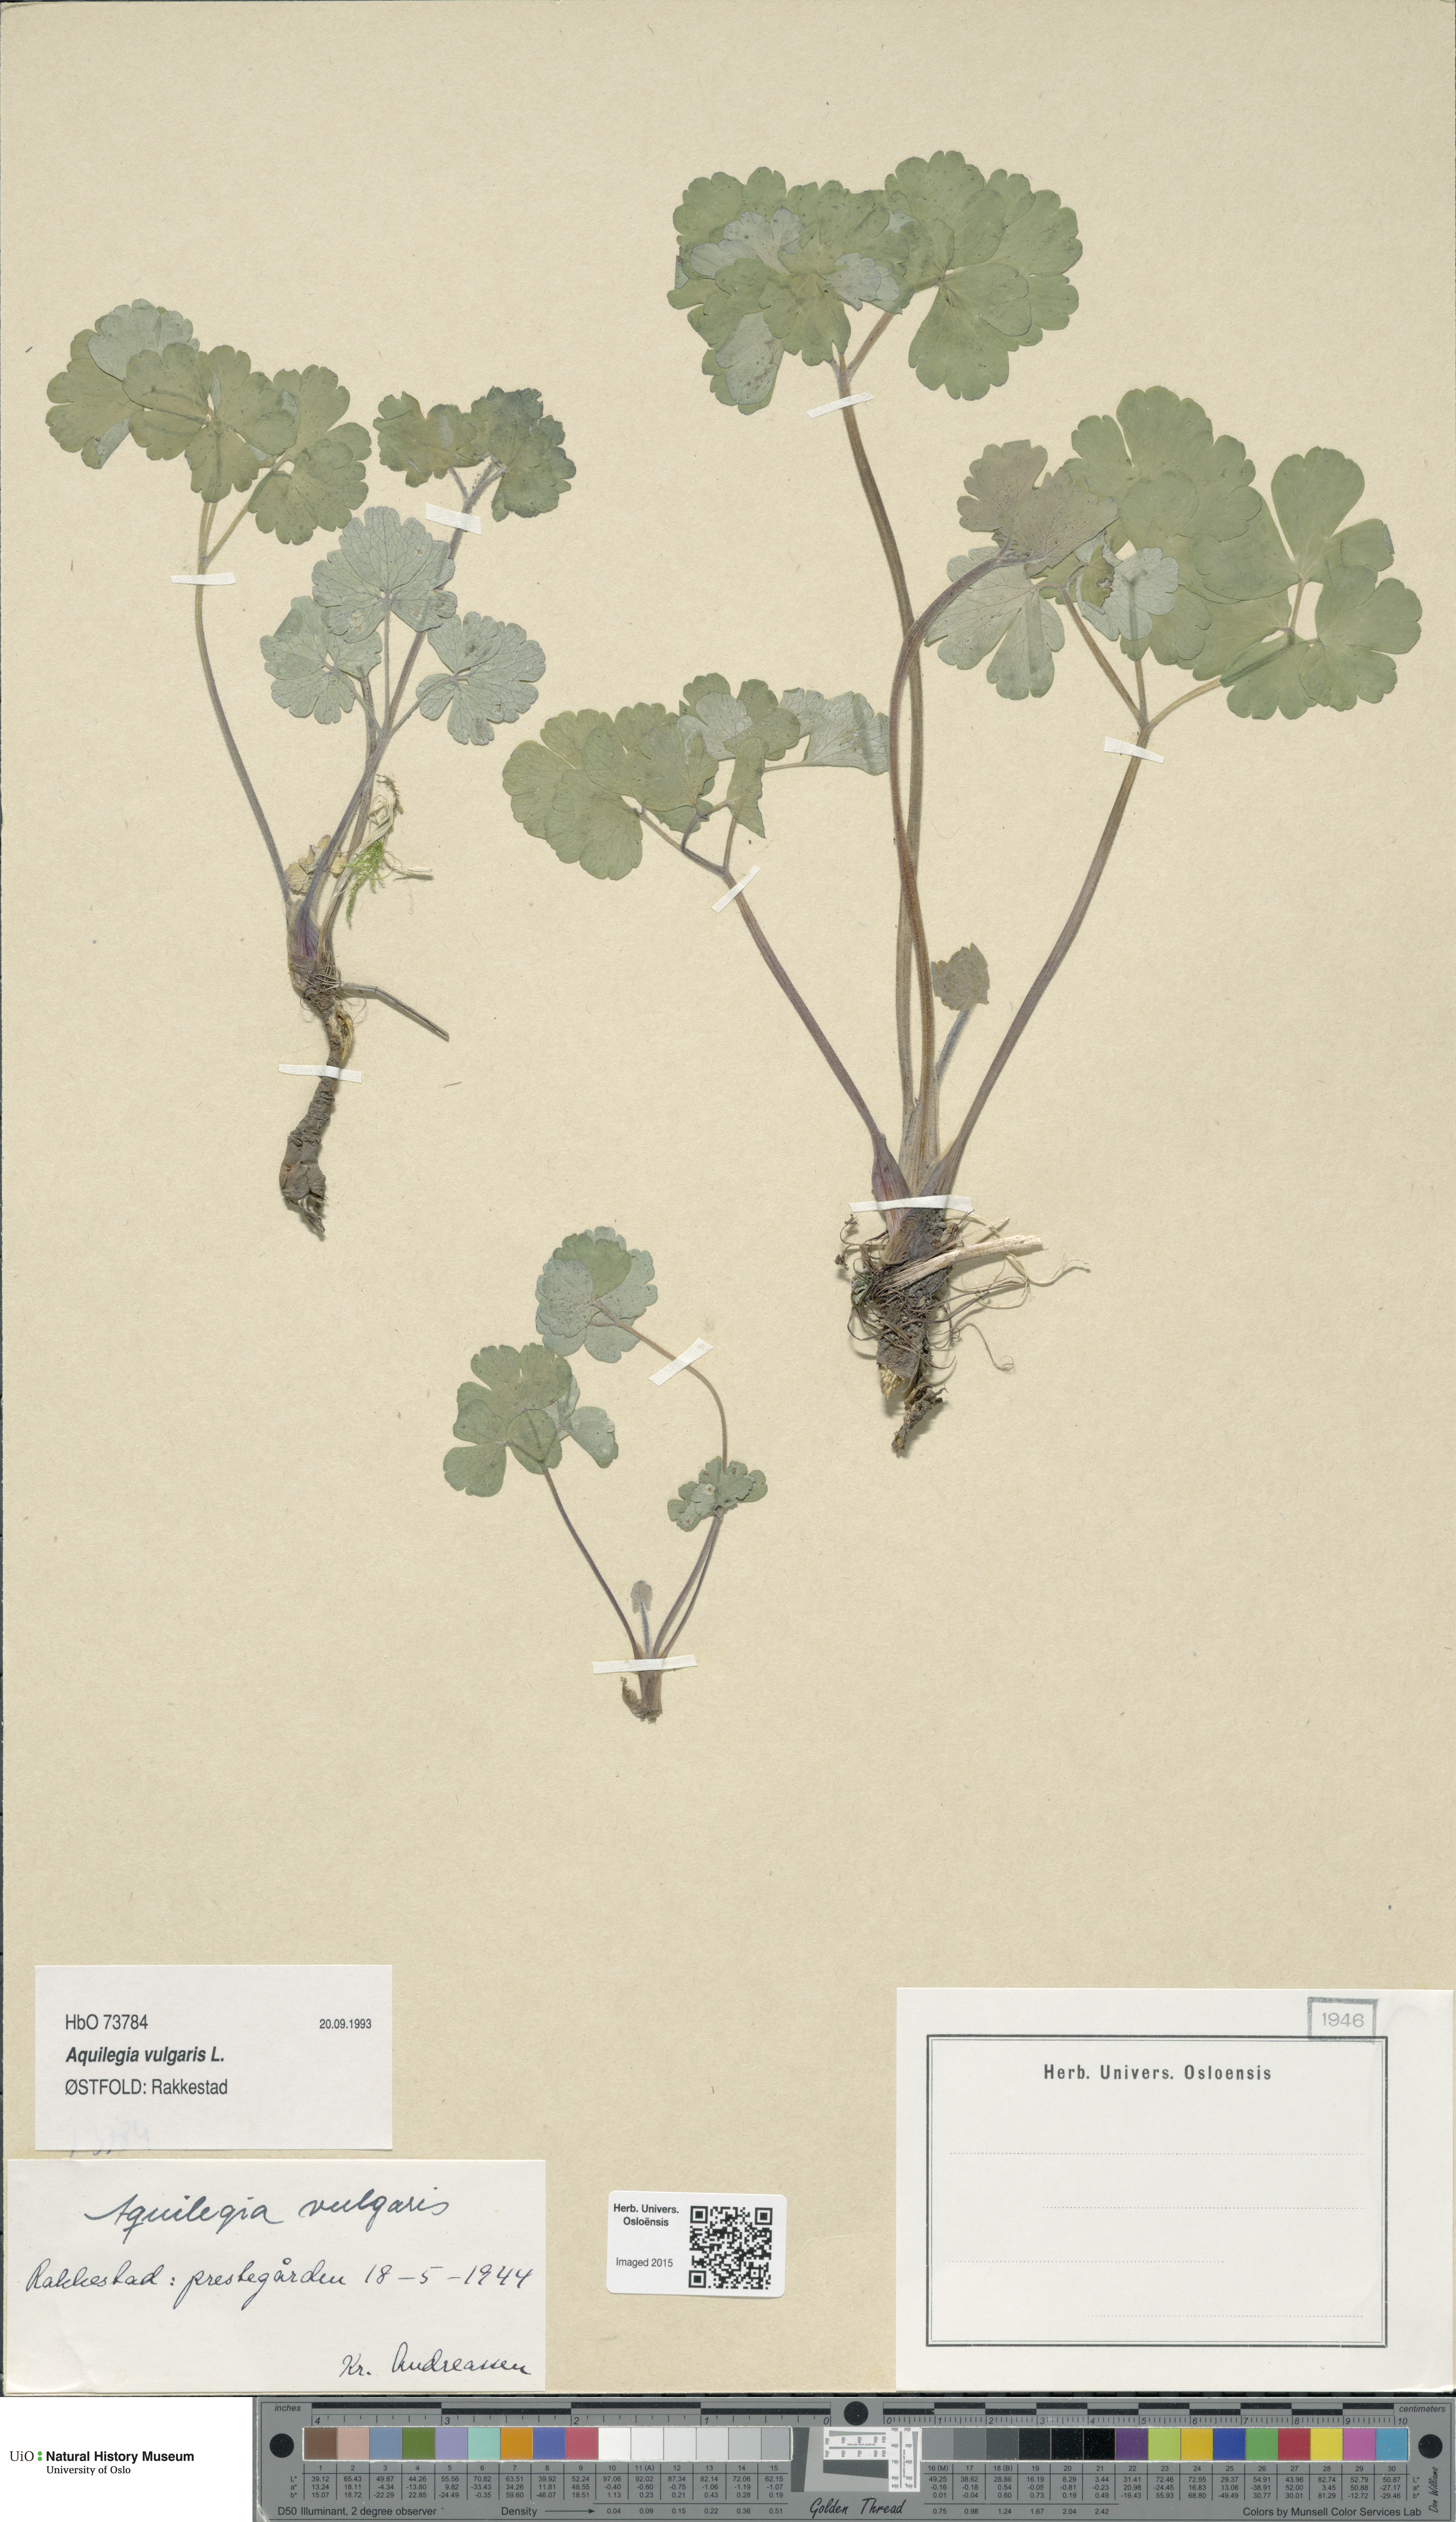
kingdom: Plantae
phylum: Tracheophyta
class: Magnoliopsida
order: Ranunculales
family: Ranunculaceae
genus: Aquilegia
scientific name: Aquilegia vulgaris
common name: Columbine
